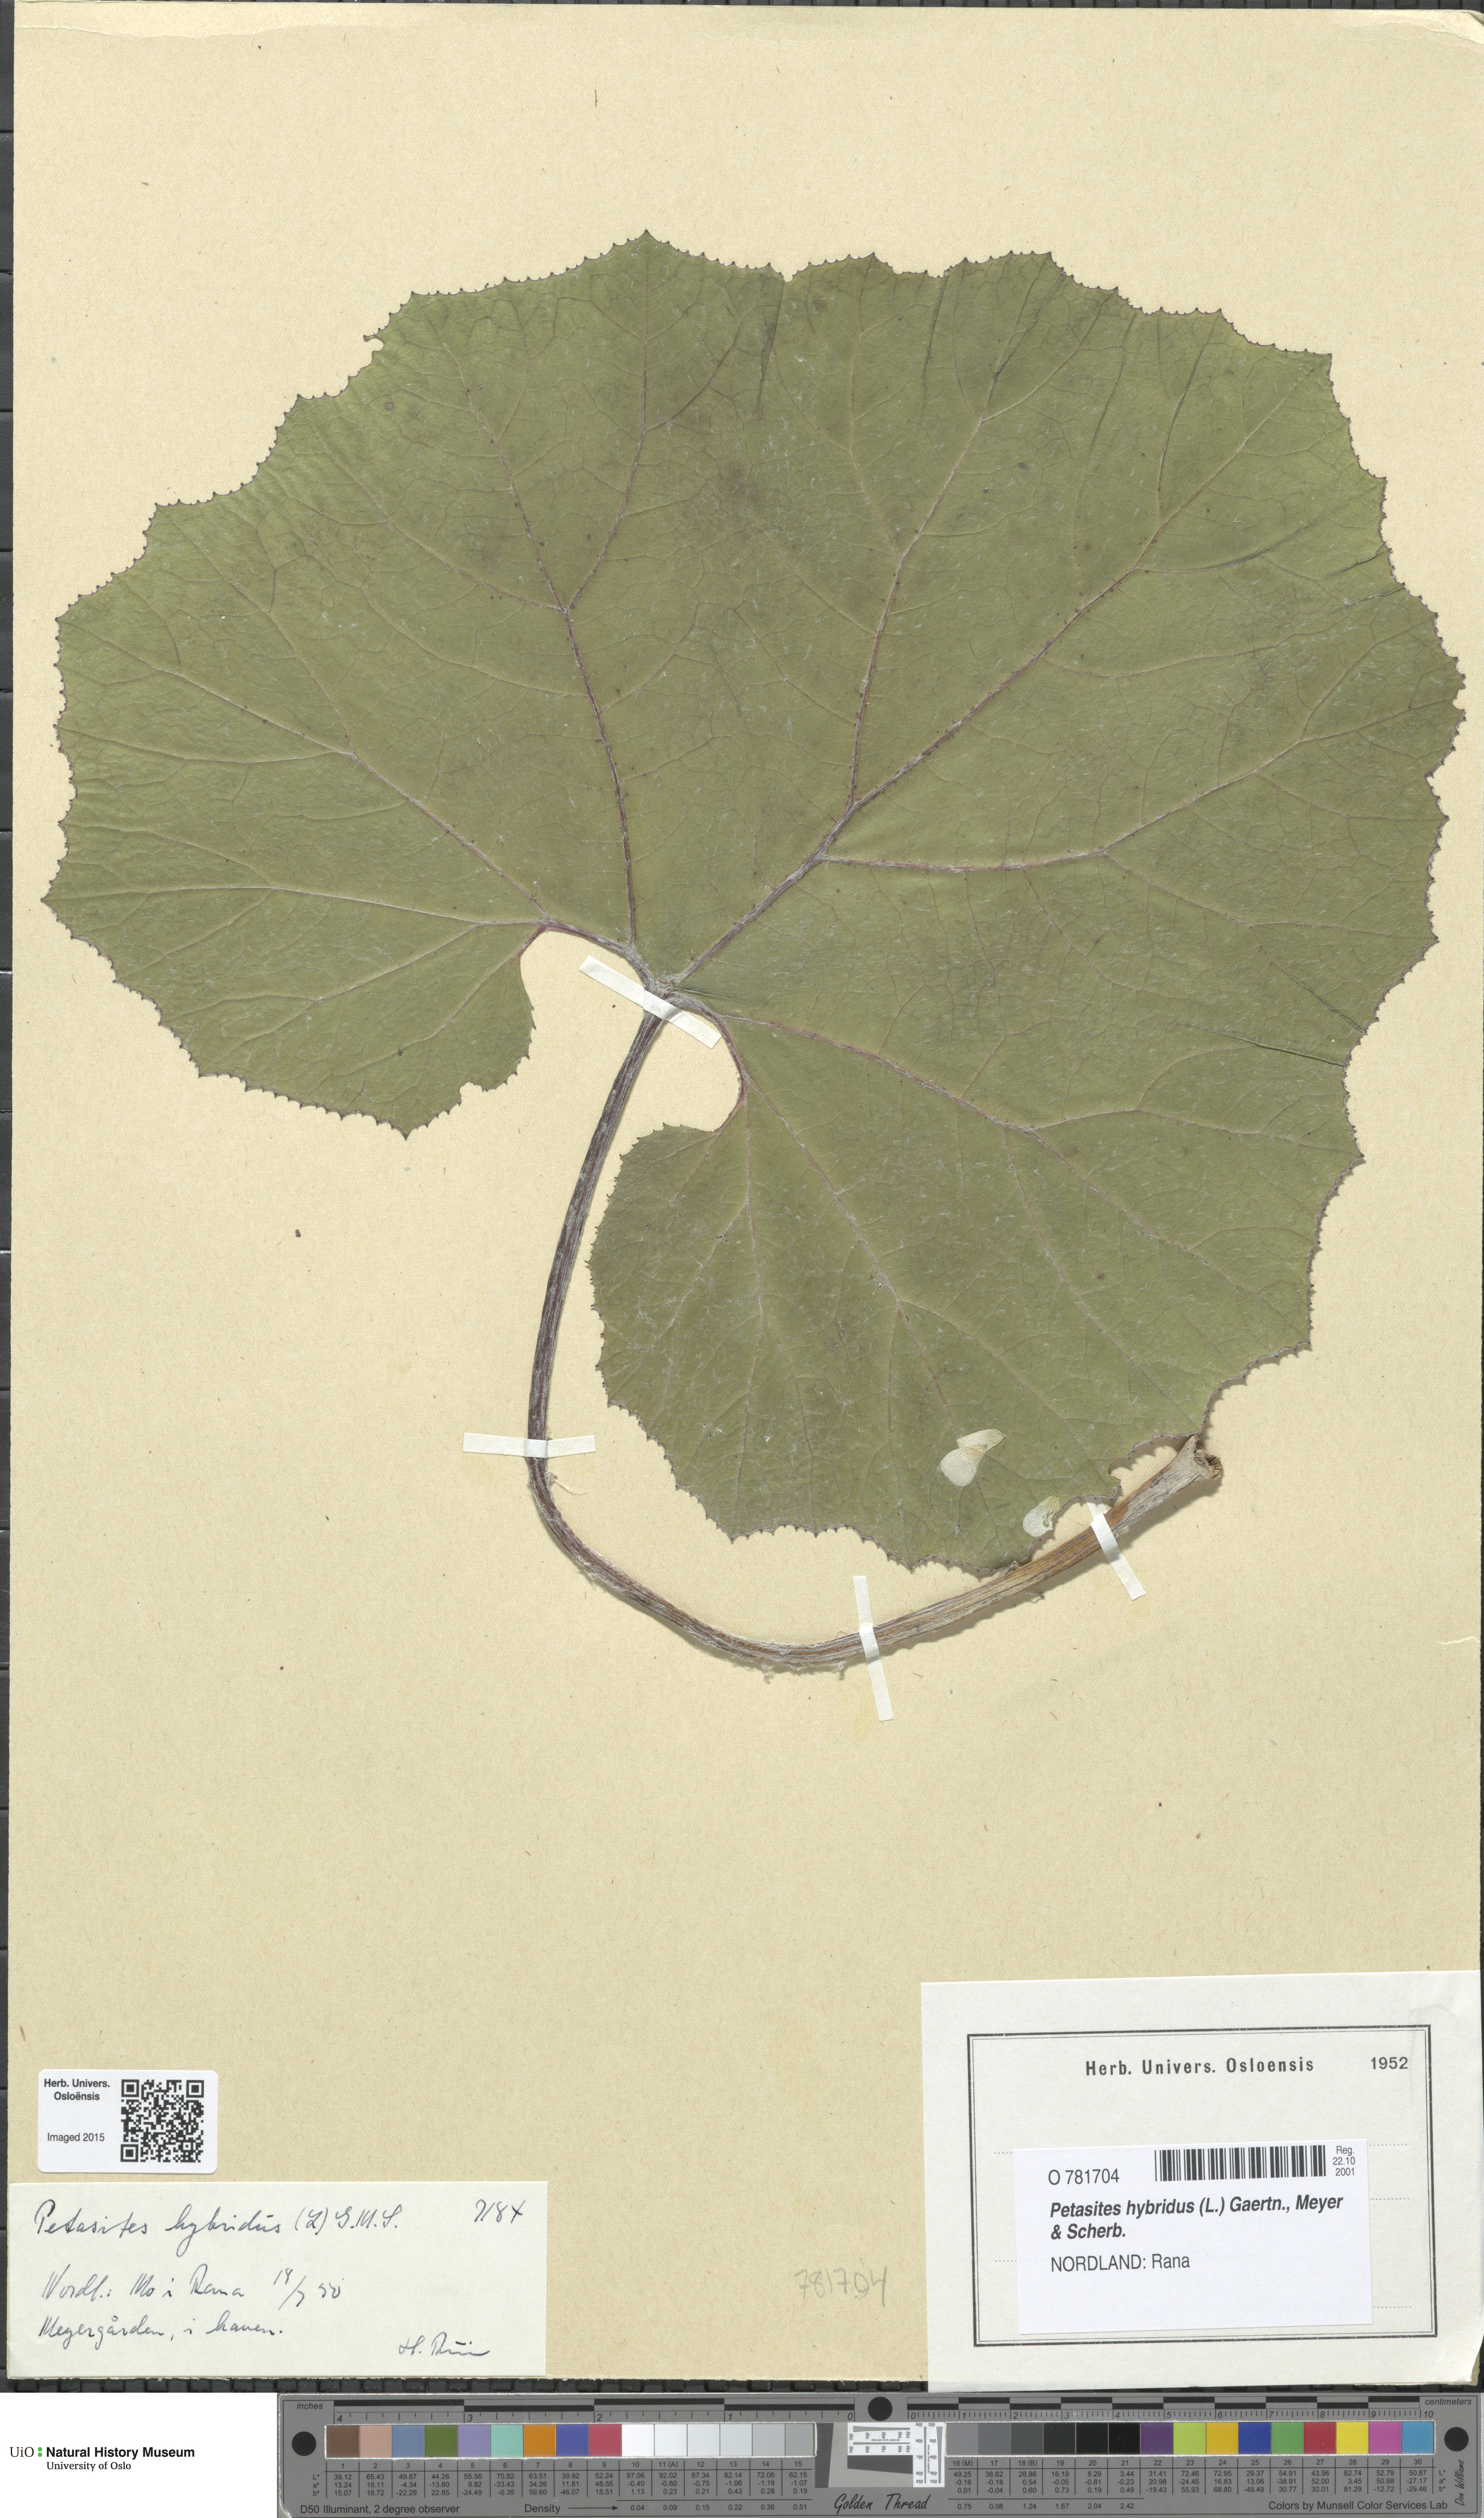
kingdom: Plantae
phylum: Tracheophyta
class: Magnoliopsida
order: Asterales
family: Asteraceae
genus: Petasites
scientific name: Petasites hybridus
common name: Butterbur
